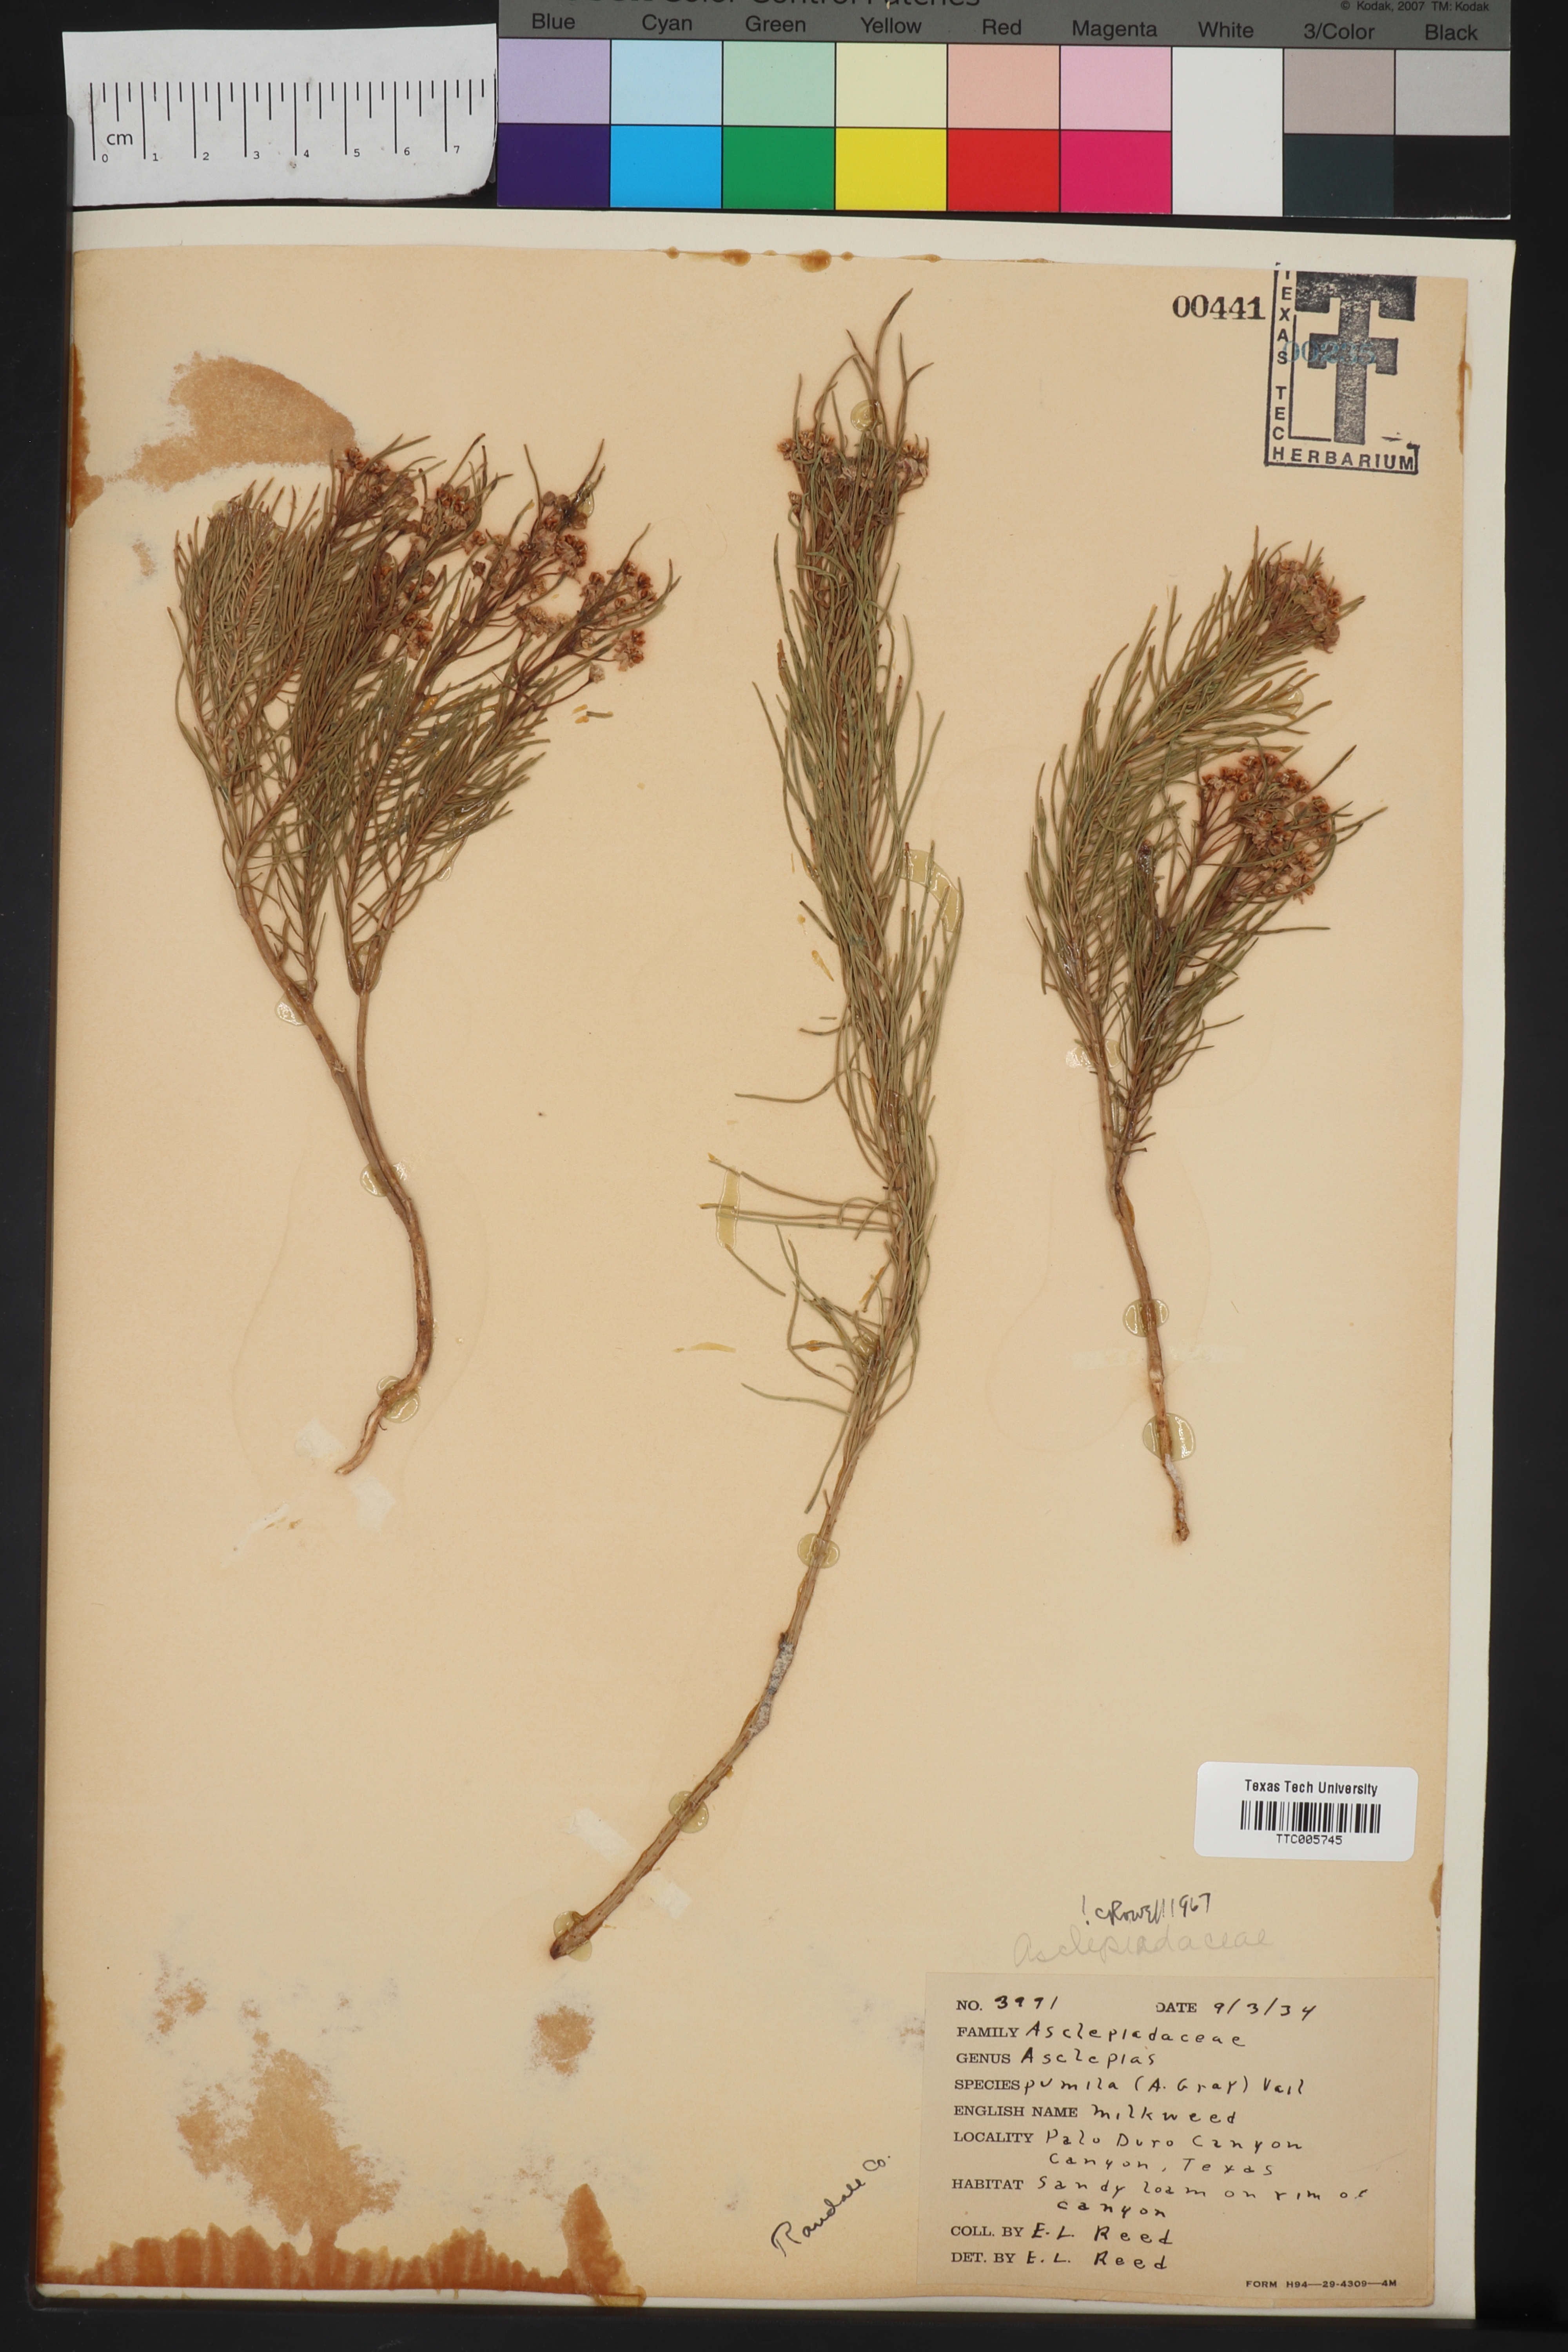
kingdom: Plantae
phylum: Tracheophyta
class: Magnoliopsida
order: Gentianales
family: Apocynaceae
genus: Asclepias
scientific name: Asclepias pumila
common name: Dwarf milkweed
